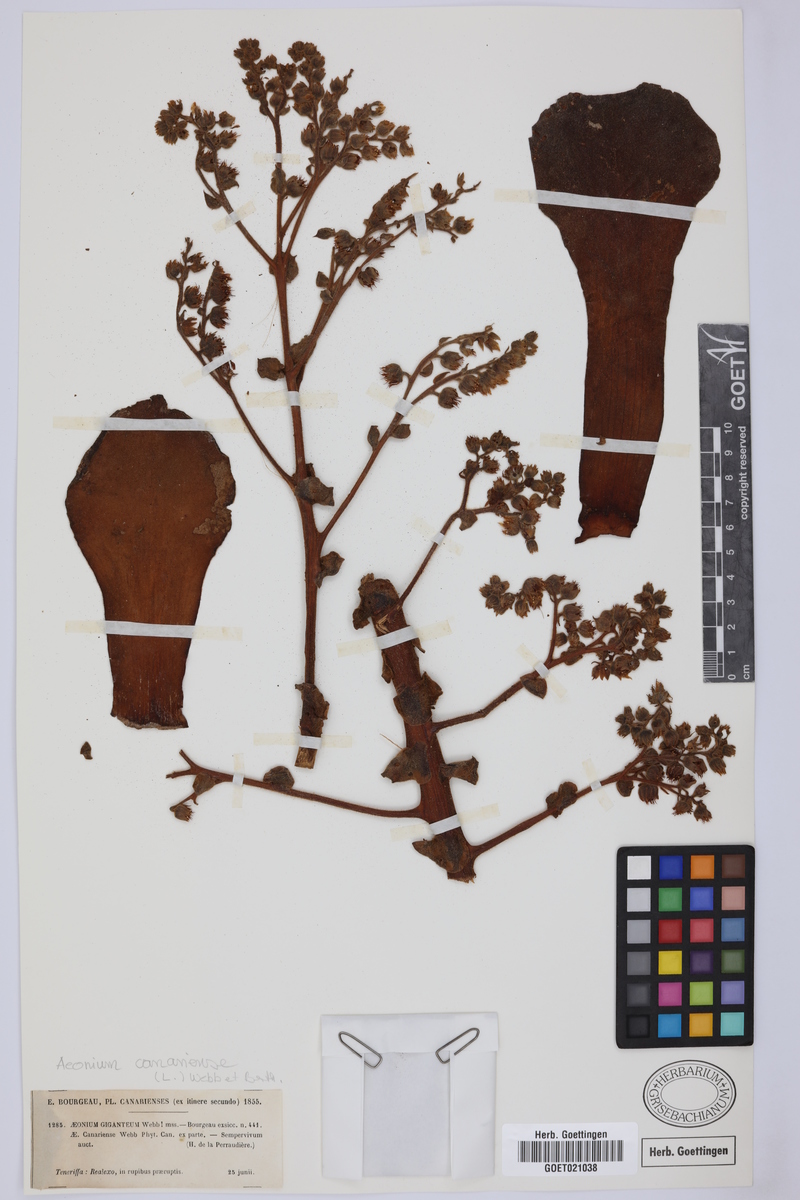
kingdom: Plantae
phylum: Tracheophyta
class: Magnoliopsida
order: Saxifragales
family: Crassulaceae
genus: Aeonium
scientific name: Aeonium canariense
